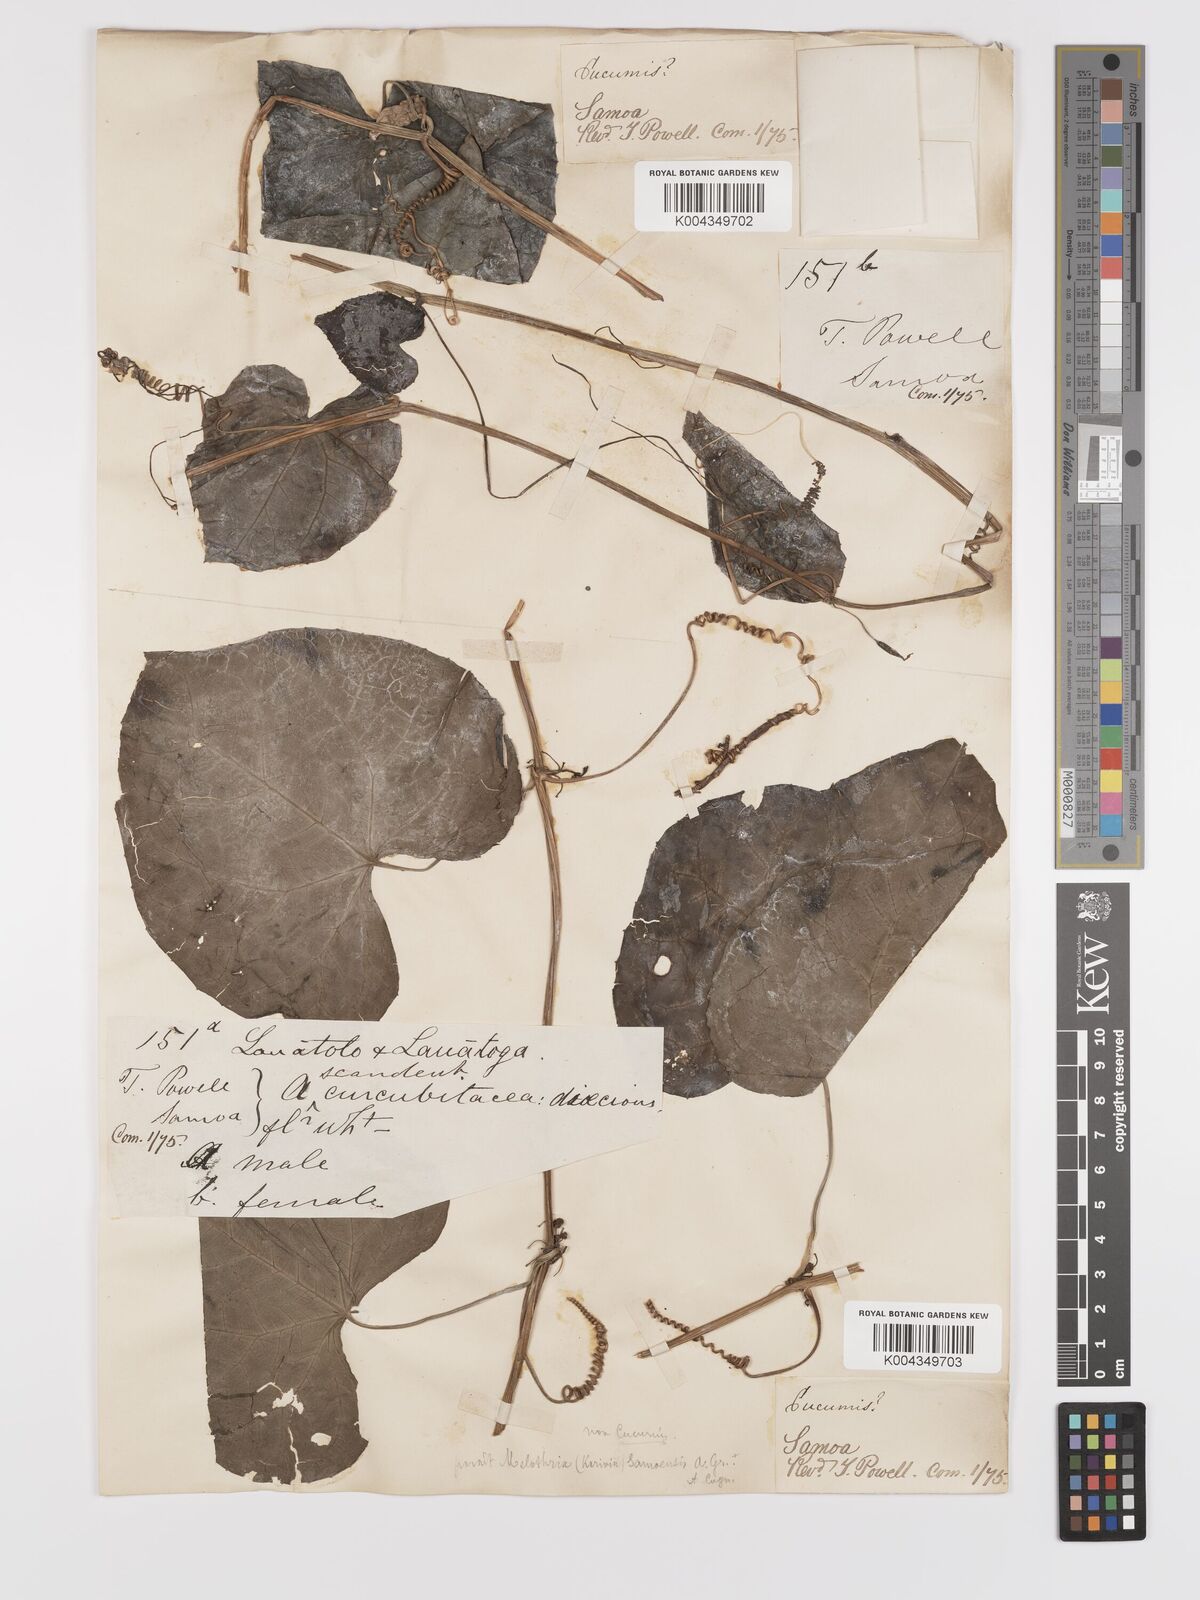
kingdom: Plantae
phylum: Tracheophyta
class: Magnoliopsida
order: Cucurbitales
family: Cucurbitaceae
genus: Zehneria
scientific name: Zehneria
